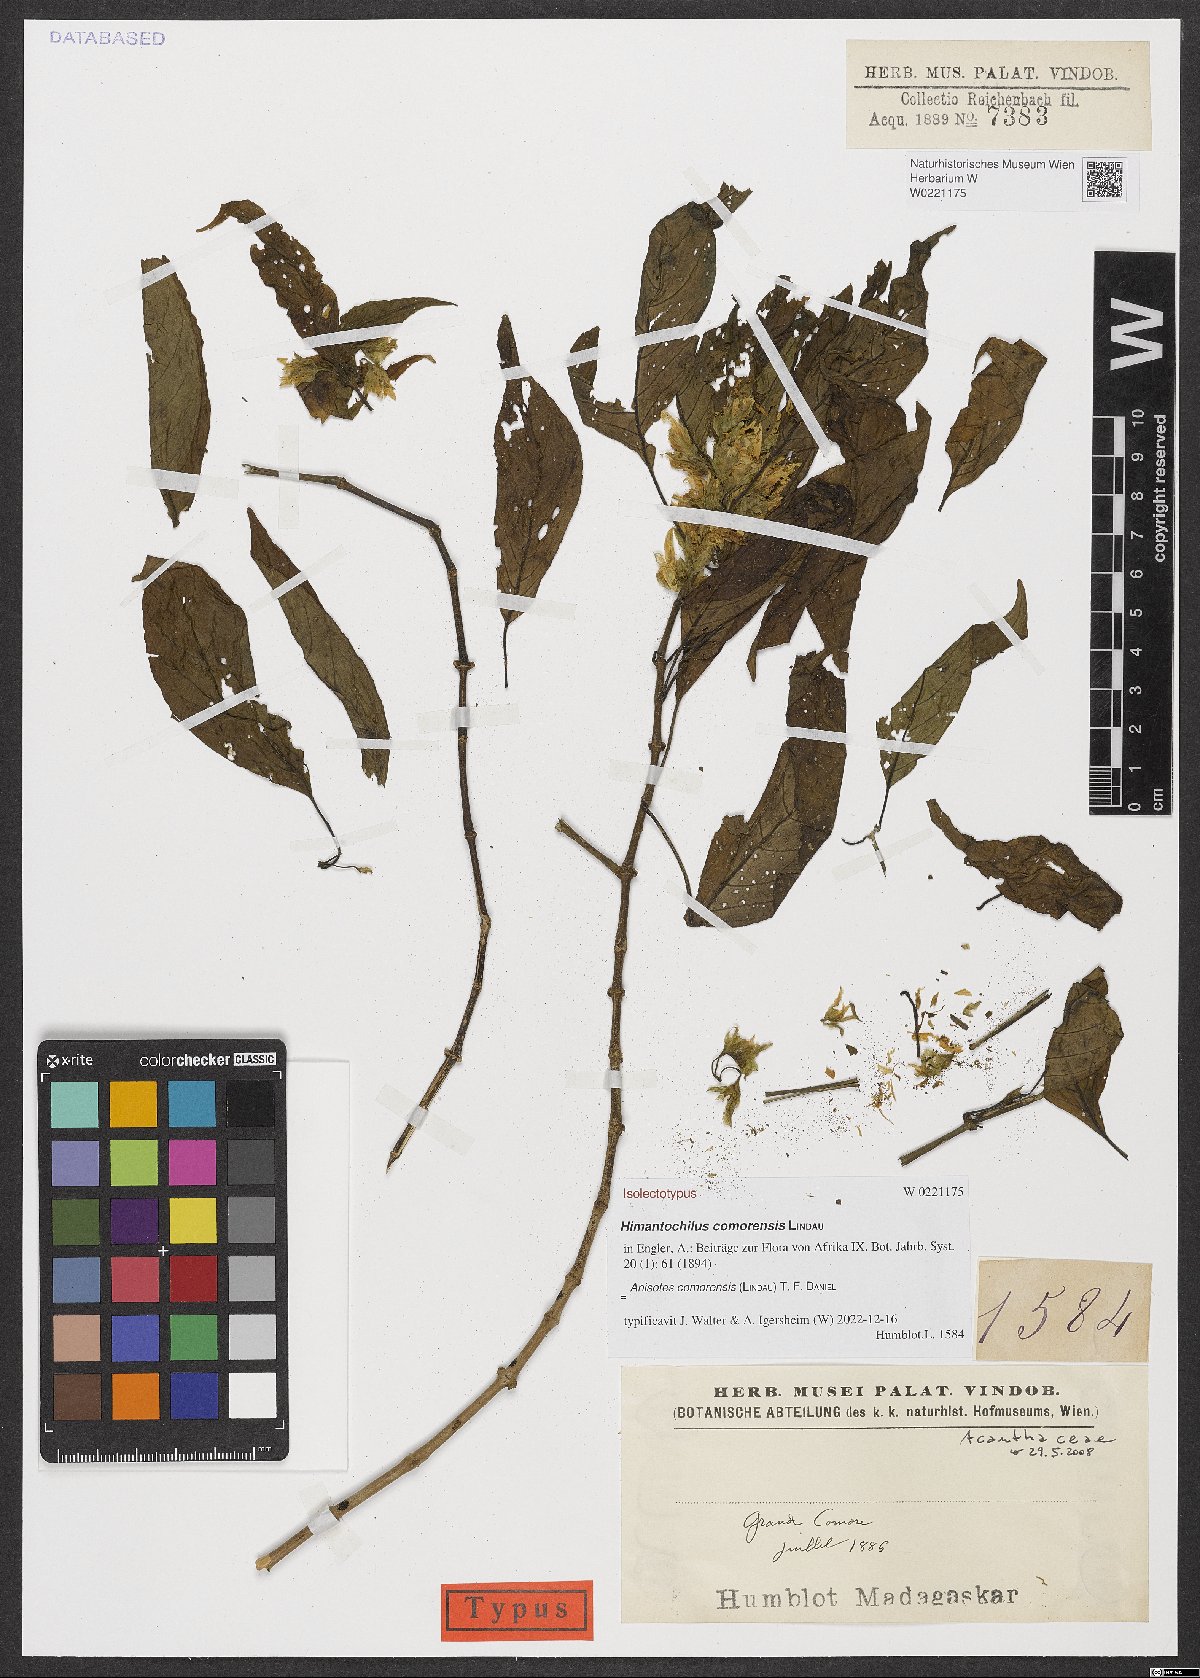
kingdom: Plantae
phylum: Tracheophyta
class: Magnoliopsida
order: Lamiales
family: Acanthaceae
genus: Anisotes
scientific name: Anisotes comorensis
